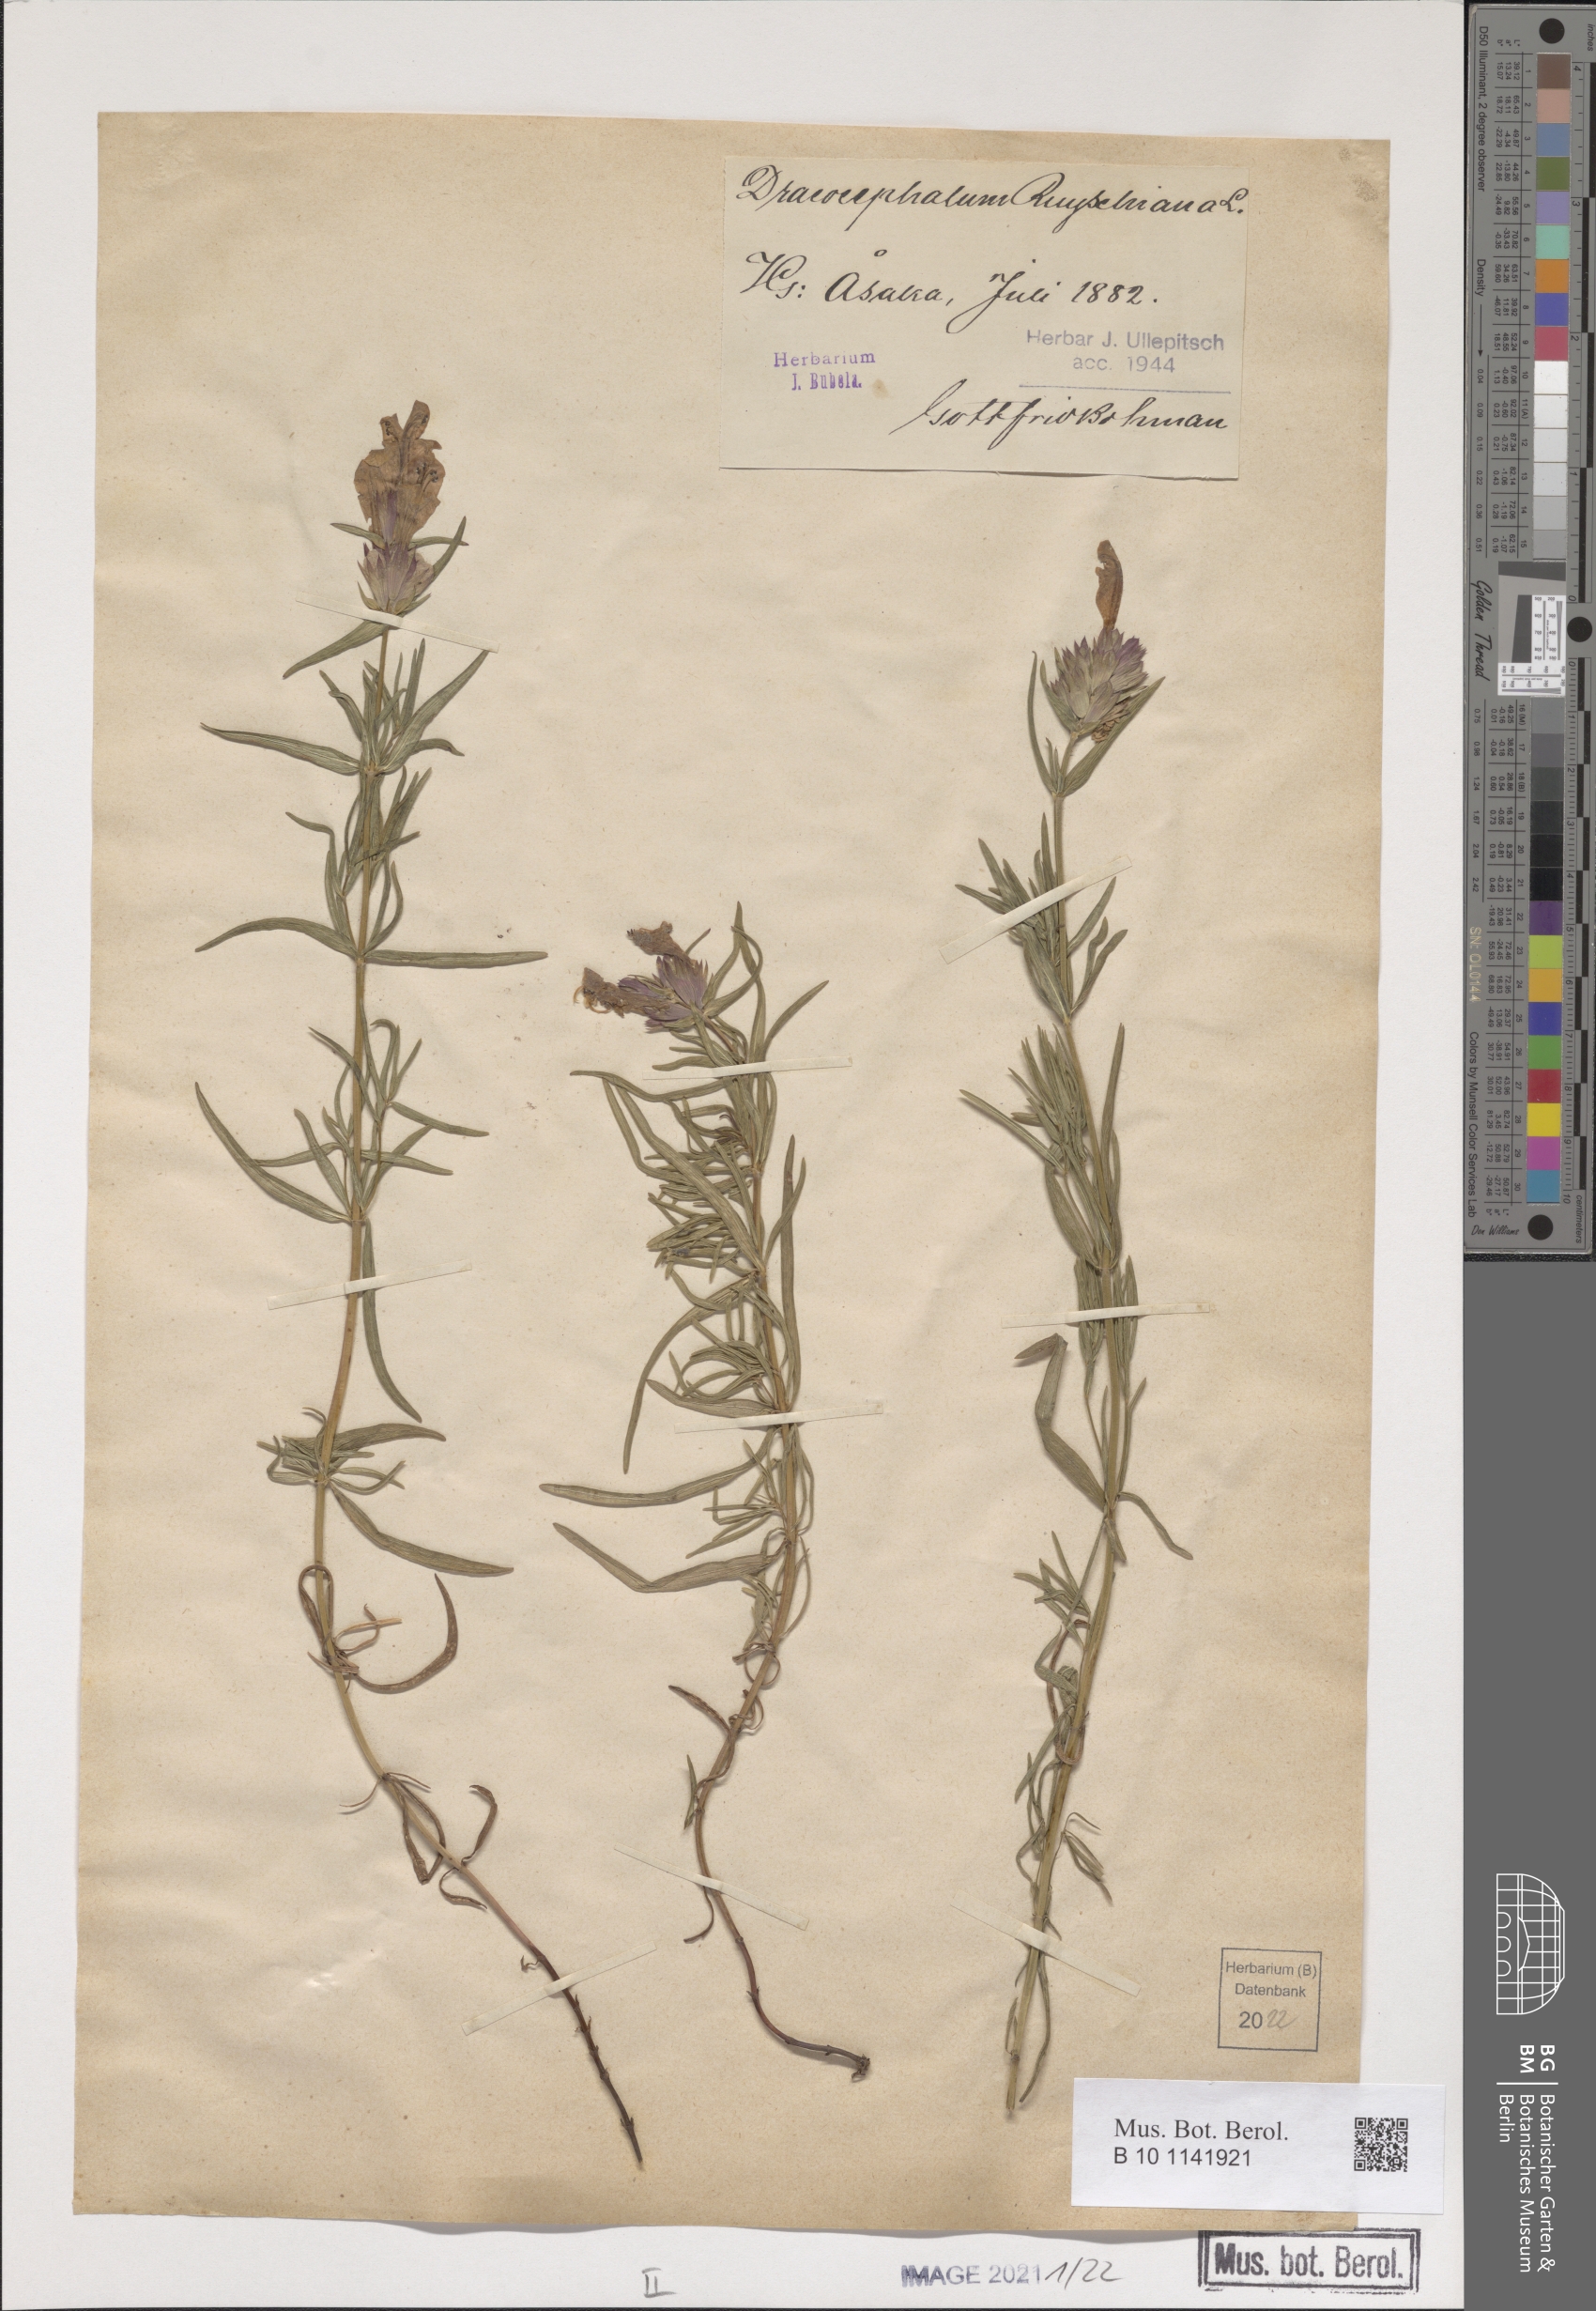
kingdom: Plantae
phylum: Tracheophyta
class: Magnoliopsida
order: Lamiales
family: Lamiaceae
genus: Dracocephalum
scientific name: Dracocephalum ruyschiana
